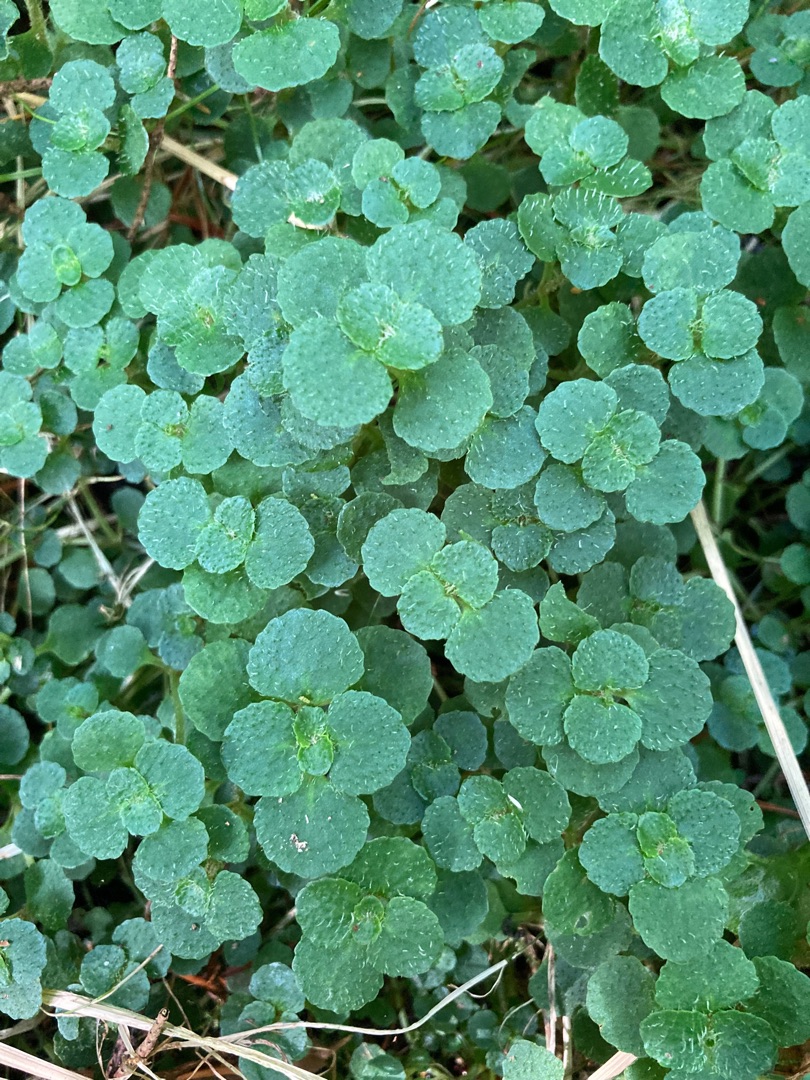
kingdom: Plantae
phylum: Tracheophyta
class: Magnoliopsida
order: Saxifragales
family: Saxifragaceae
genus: Chrysosplenium
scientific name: Chrysosplenium oppositifolium
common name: Småbladet milturt
